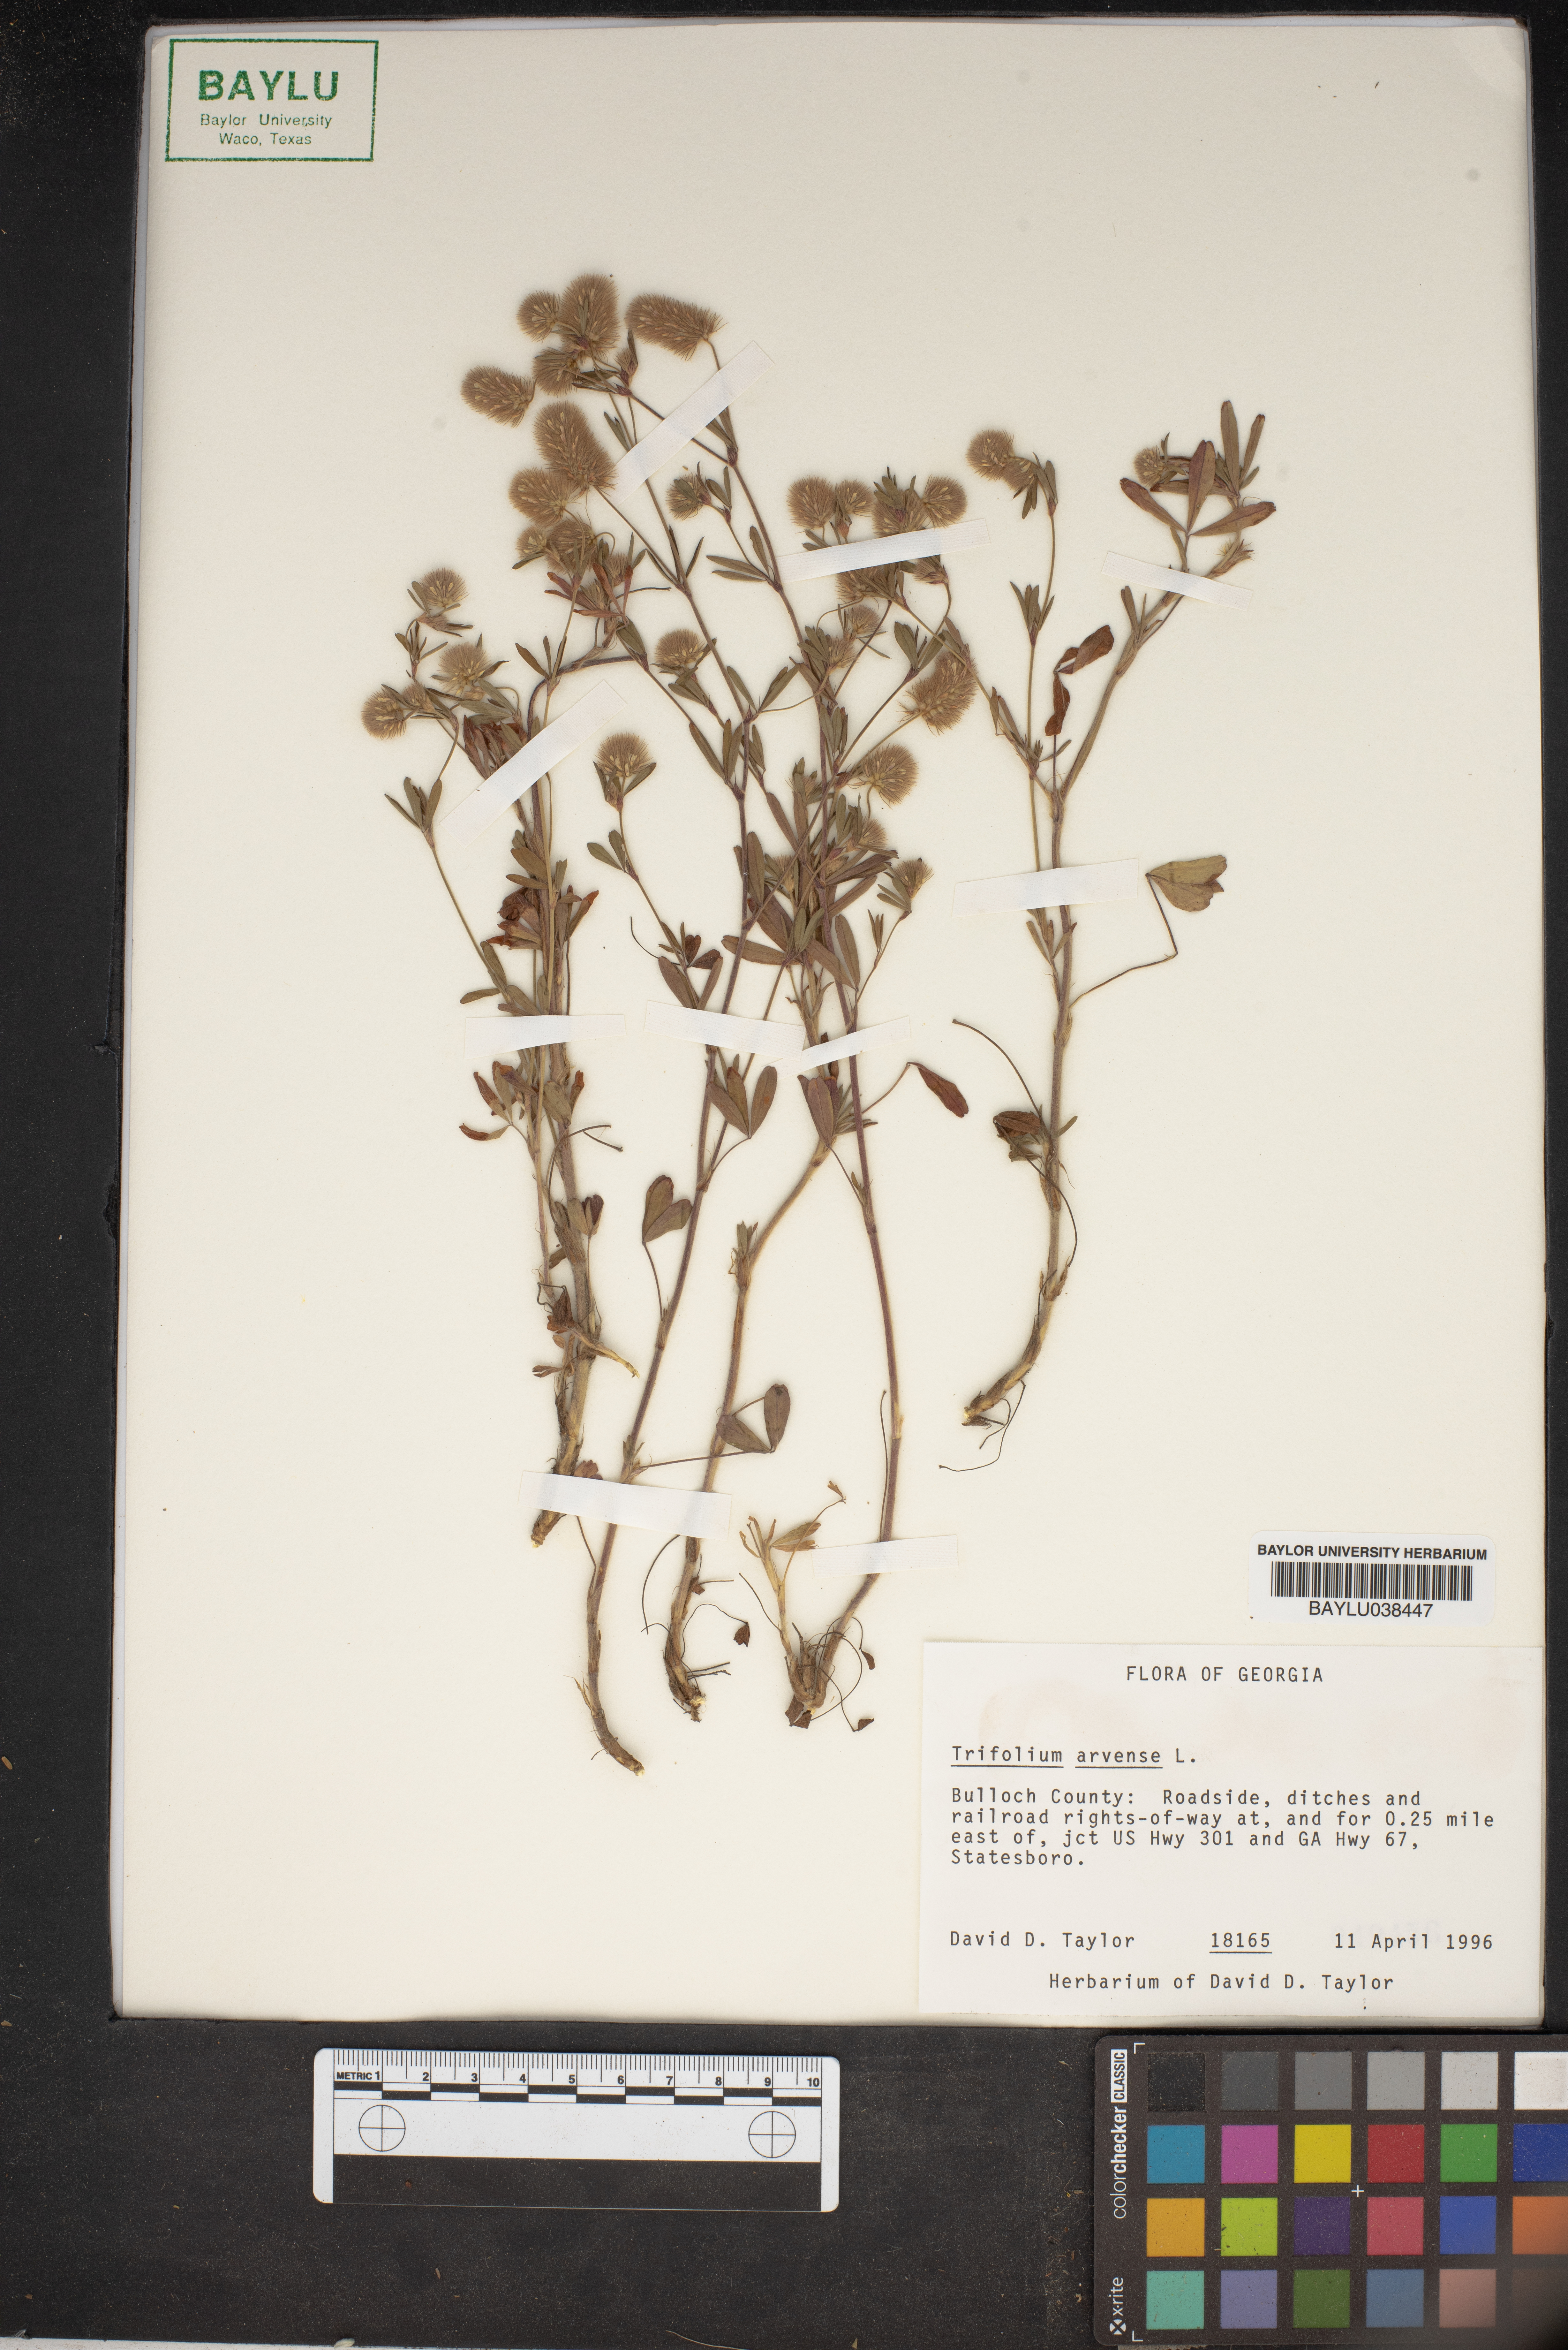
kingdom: Plantae
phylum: Tracheophyta
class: Magnoliopsida
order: Fabales
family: Fabaceae
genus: Trifolium
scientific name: Trifolium arvense
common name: Hare's-foot clover
